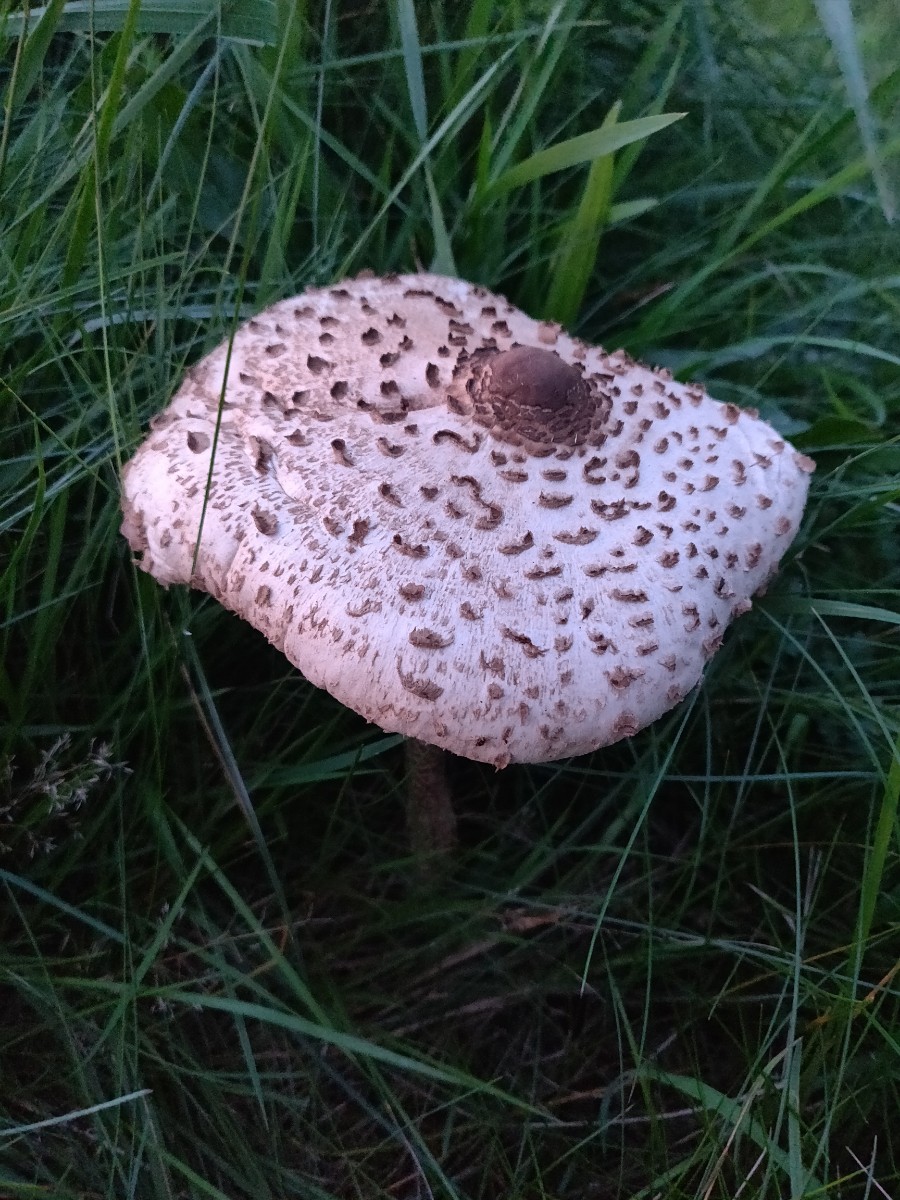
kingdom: Fungi
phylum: Basidiomycota
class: Agaricomycetes
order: Agaricales
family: Agaricaceae
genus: Macrolepiota
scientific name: Macrolepiota procera
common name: stor kæmpeparasolhat
